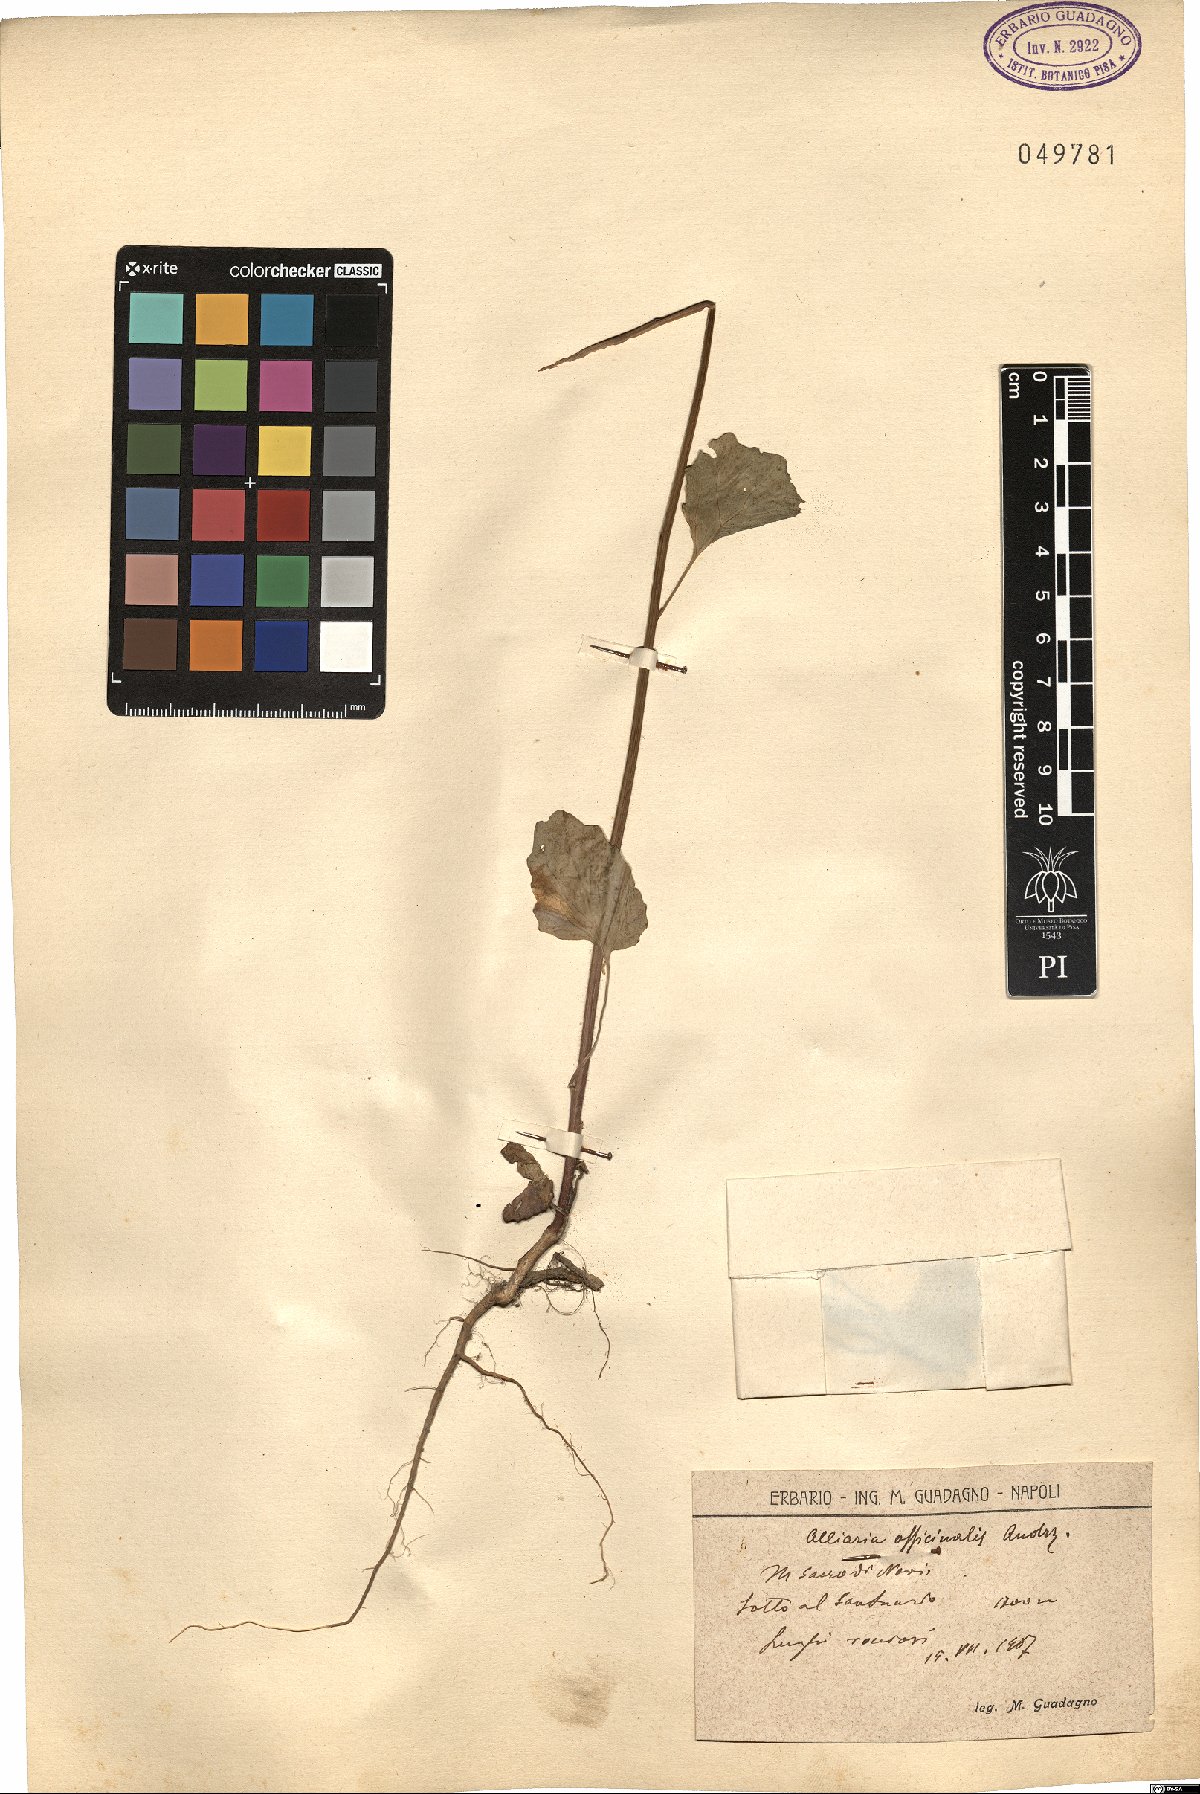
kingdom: Plantae
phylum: Tracheophyta
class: Magnoliopsida
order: Brassicales
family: Brassicaceae
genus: Alliaria
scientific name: Alliaria petiolata
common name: Garlic mustard
